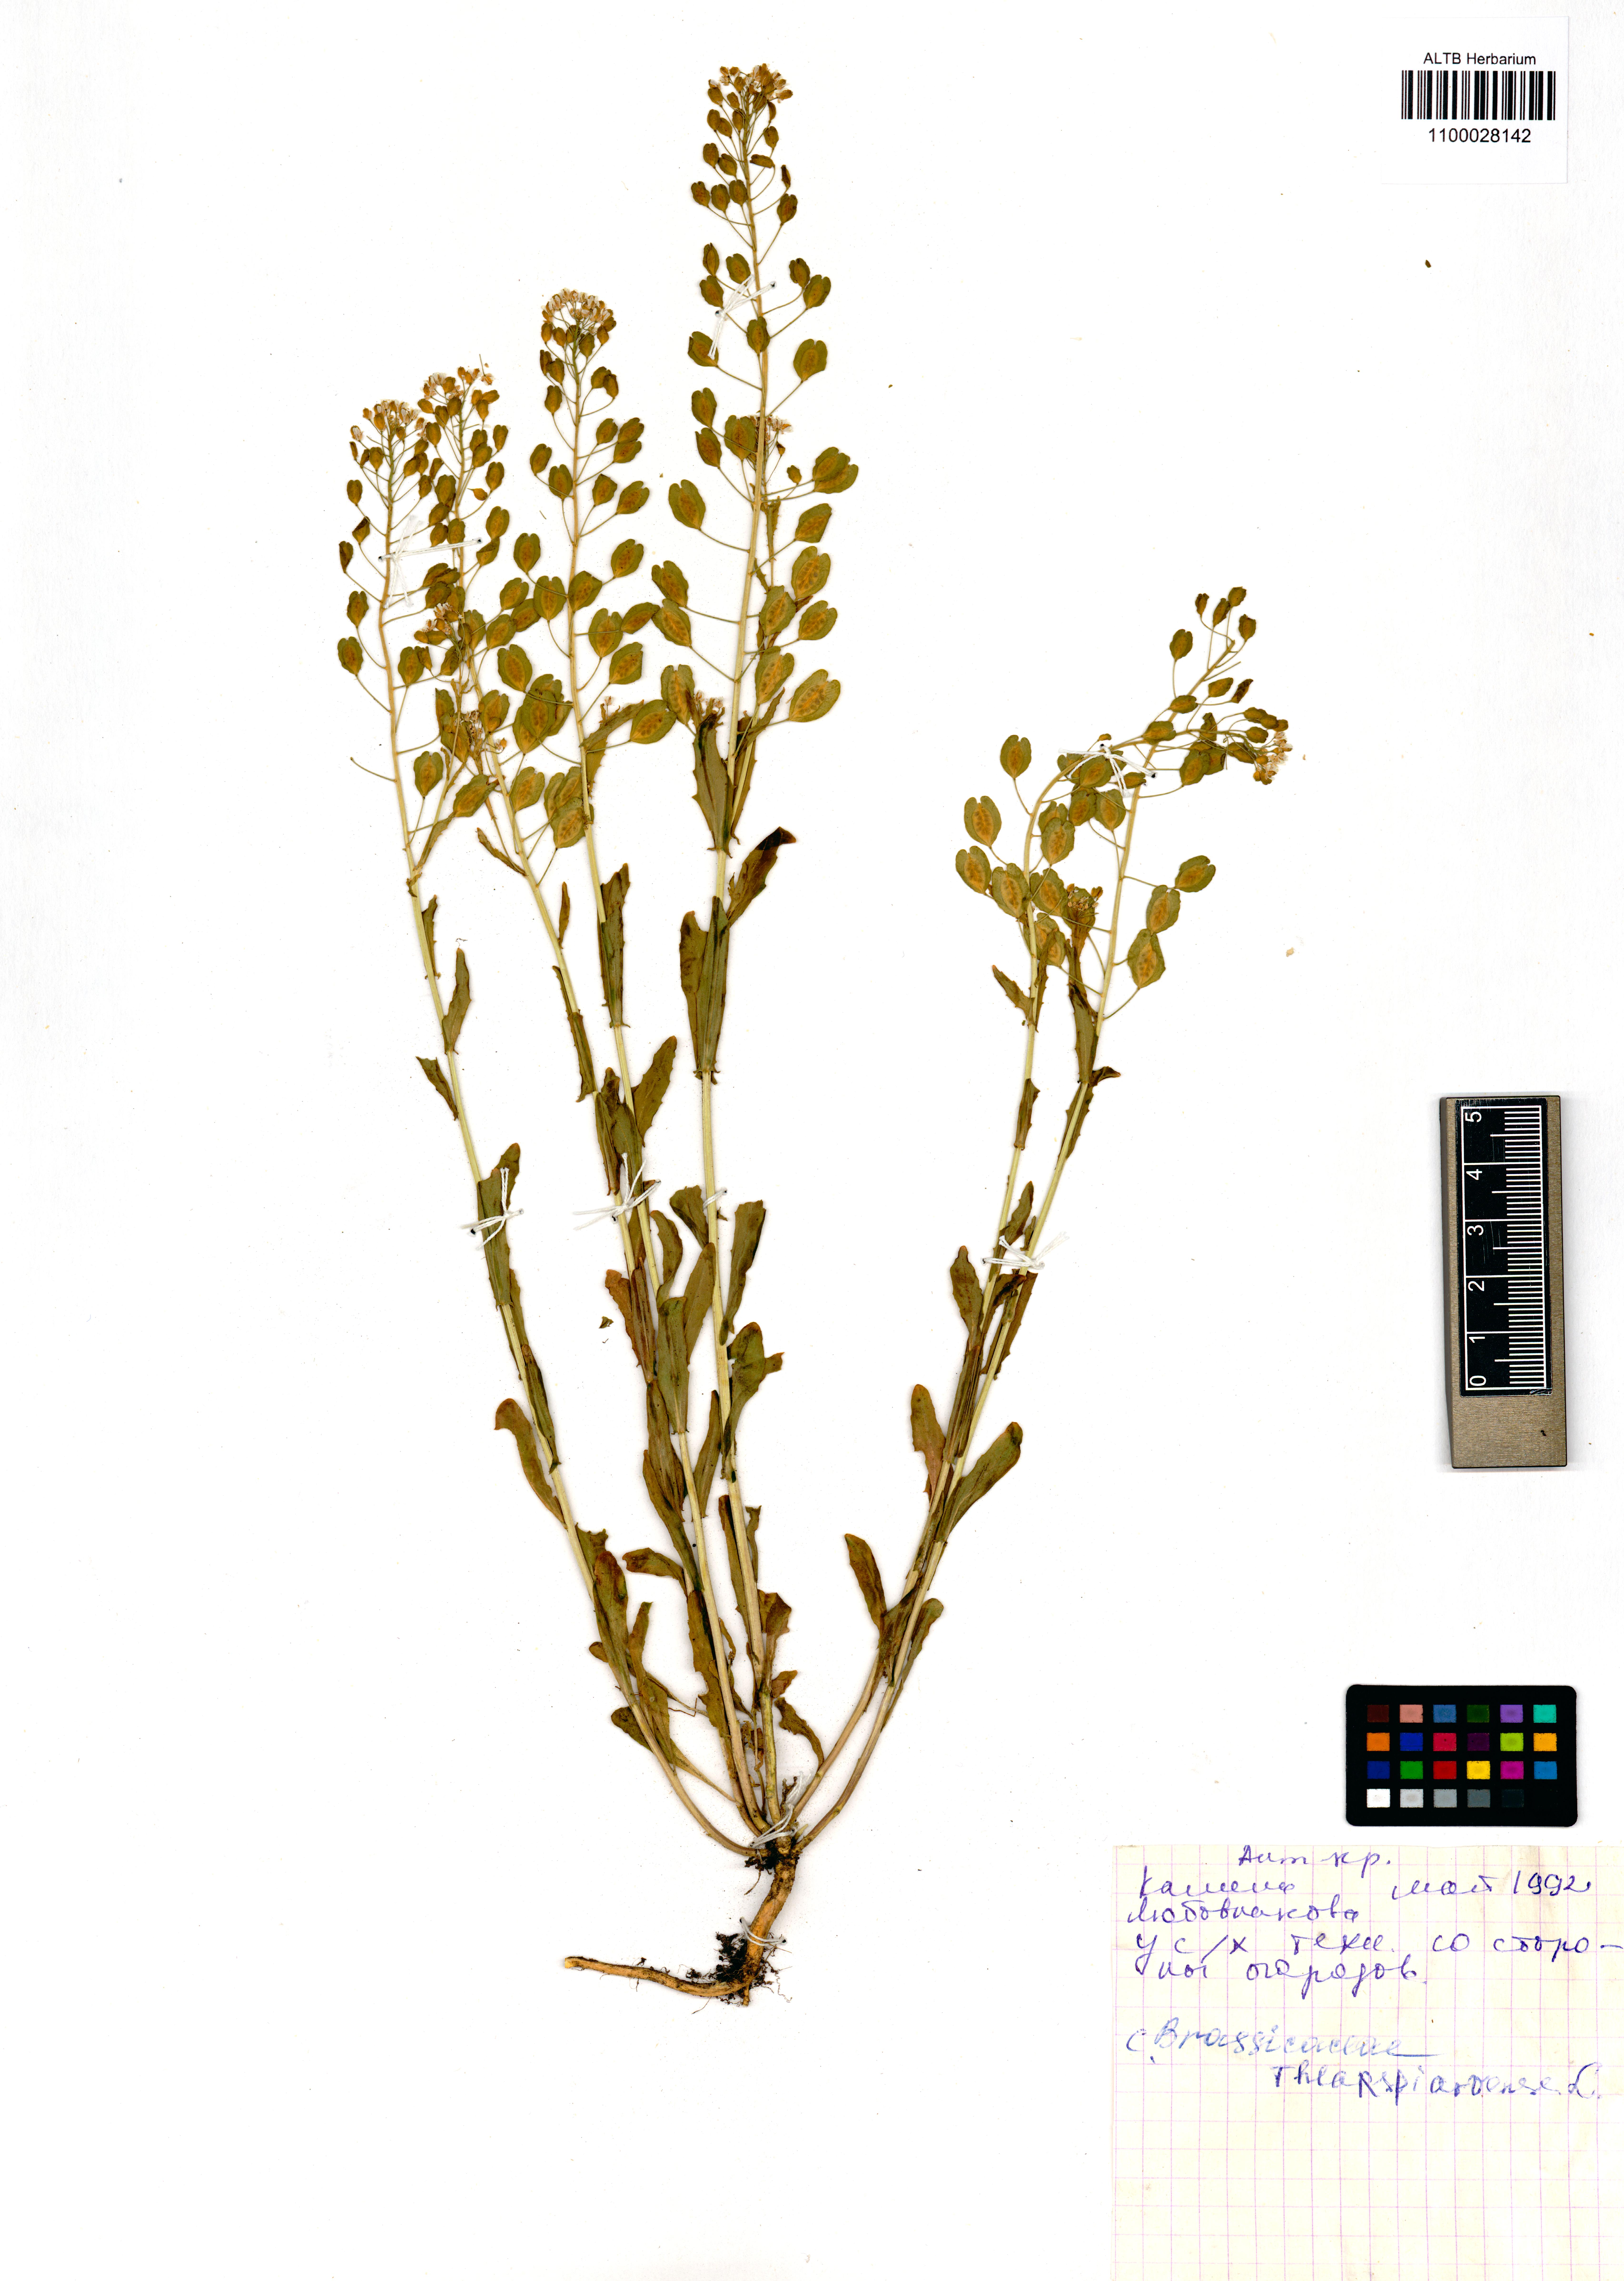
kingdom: Plantae
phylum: Tracheophyta
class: Magnoliopsida
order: Brassicales
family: Brassicaceae
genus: Thlaspi
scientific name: Thlaspi arvense
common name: Field pennycress
